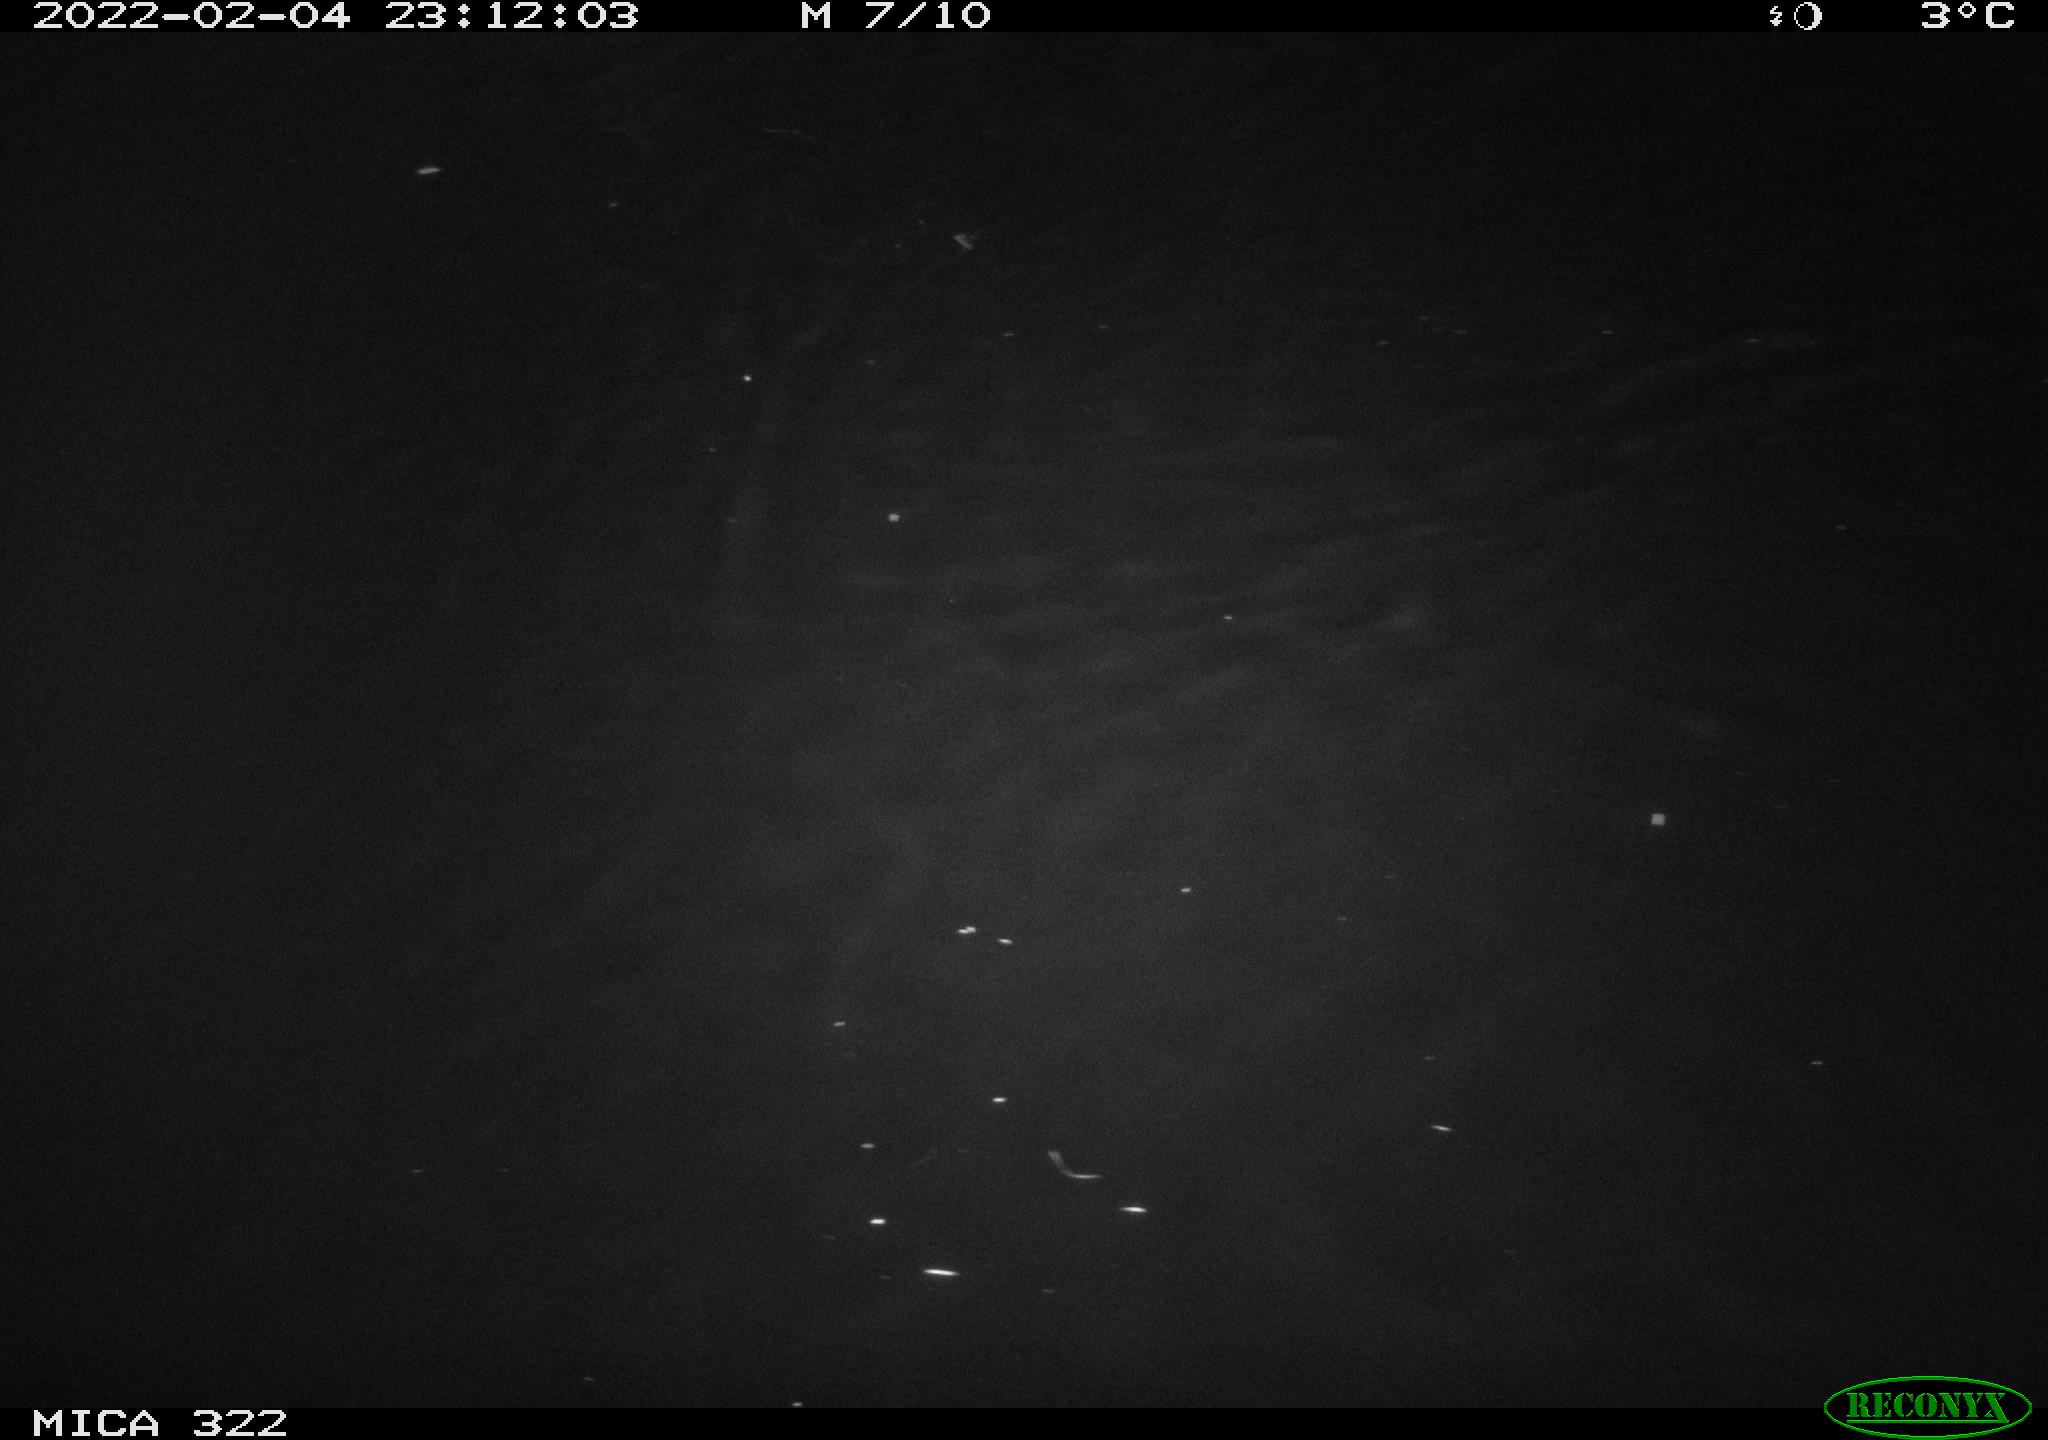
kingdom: Animalia
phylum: Chordata
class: Aves
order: Anseriformes
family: Anatidae
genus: Mareca
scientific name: Mareca strepera
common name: Gadwall
